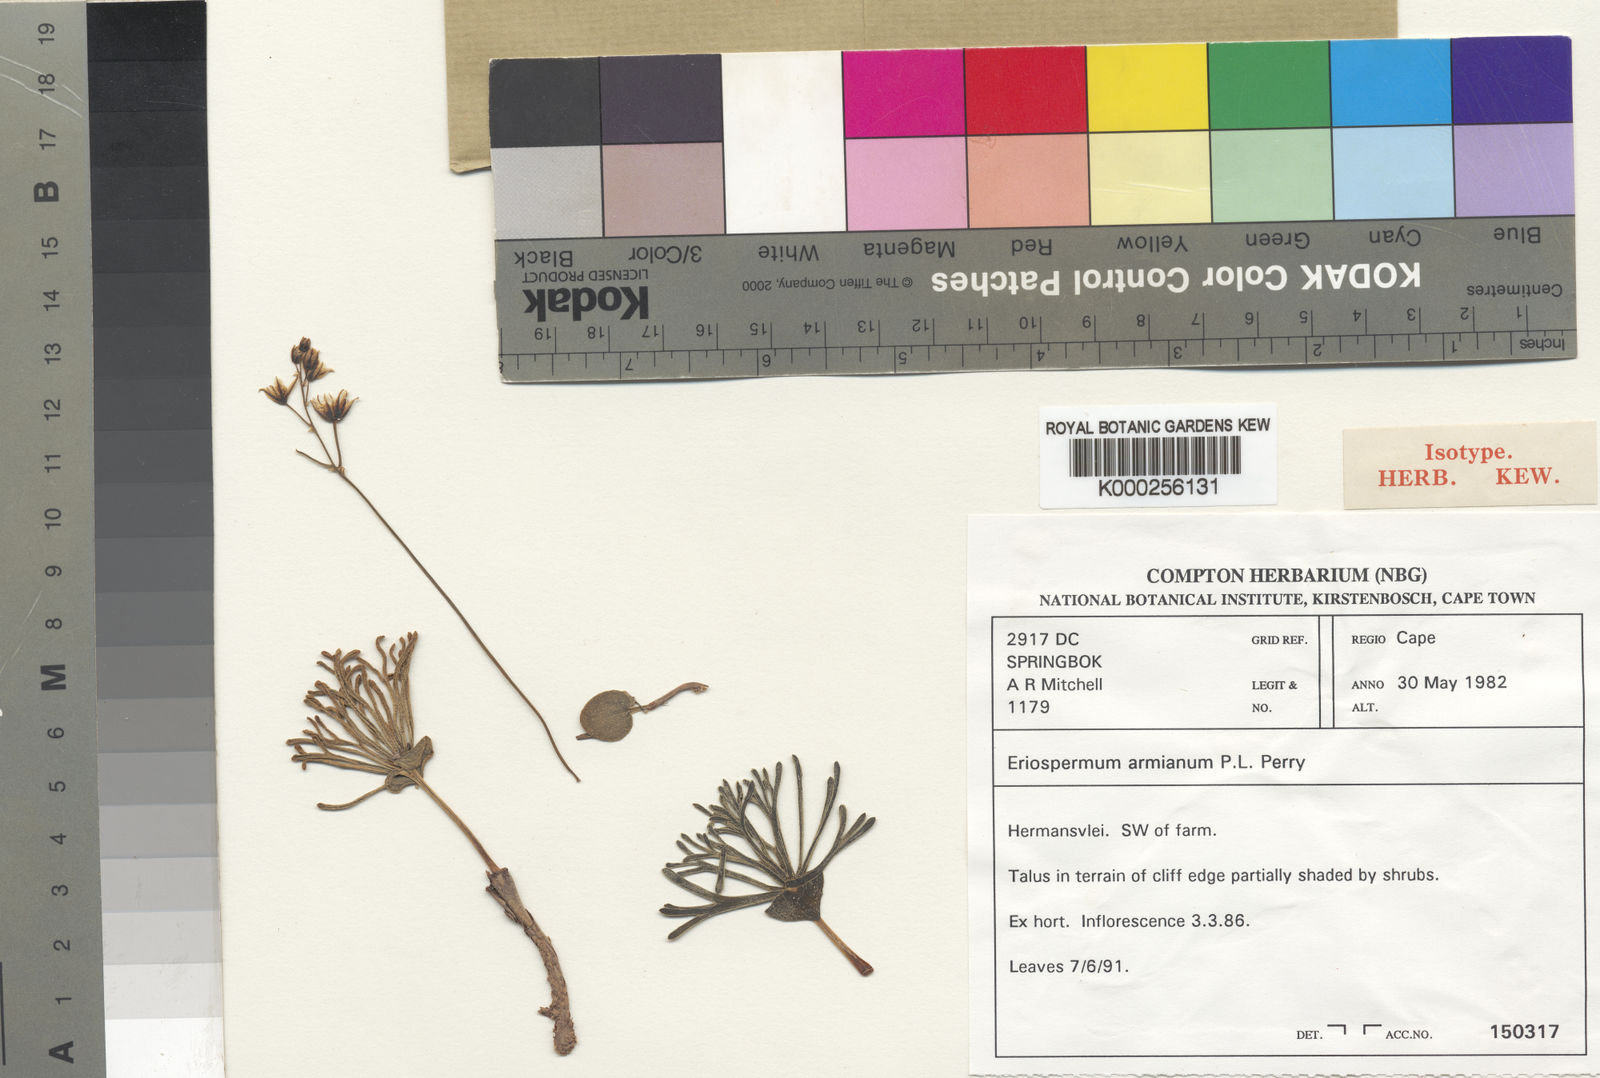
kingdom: Plantae
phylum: Tracheophyta
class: Liliopsida
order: Asparagales
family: Asparagaceae
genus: Eriospermum
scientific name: Eriospermum armianum
